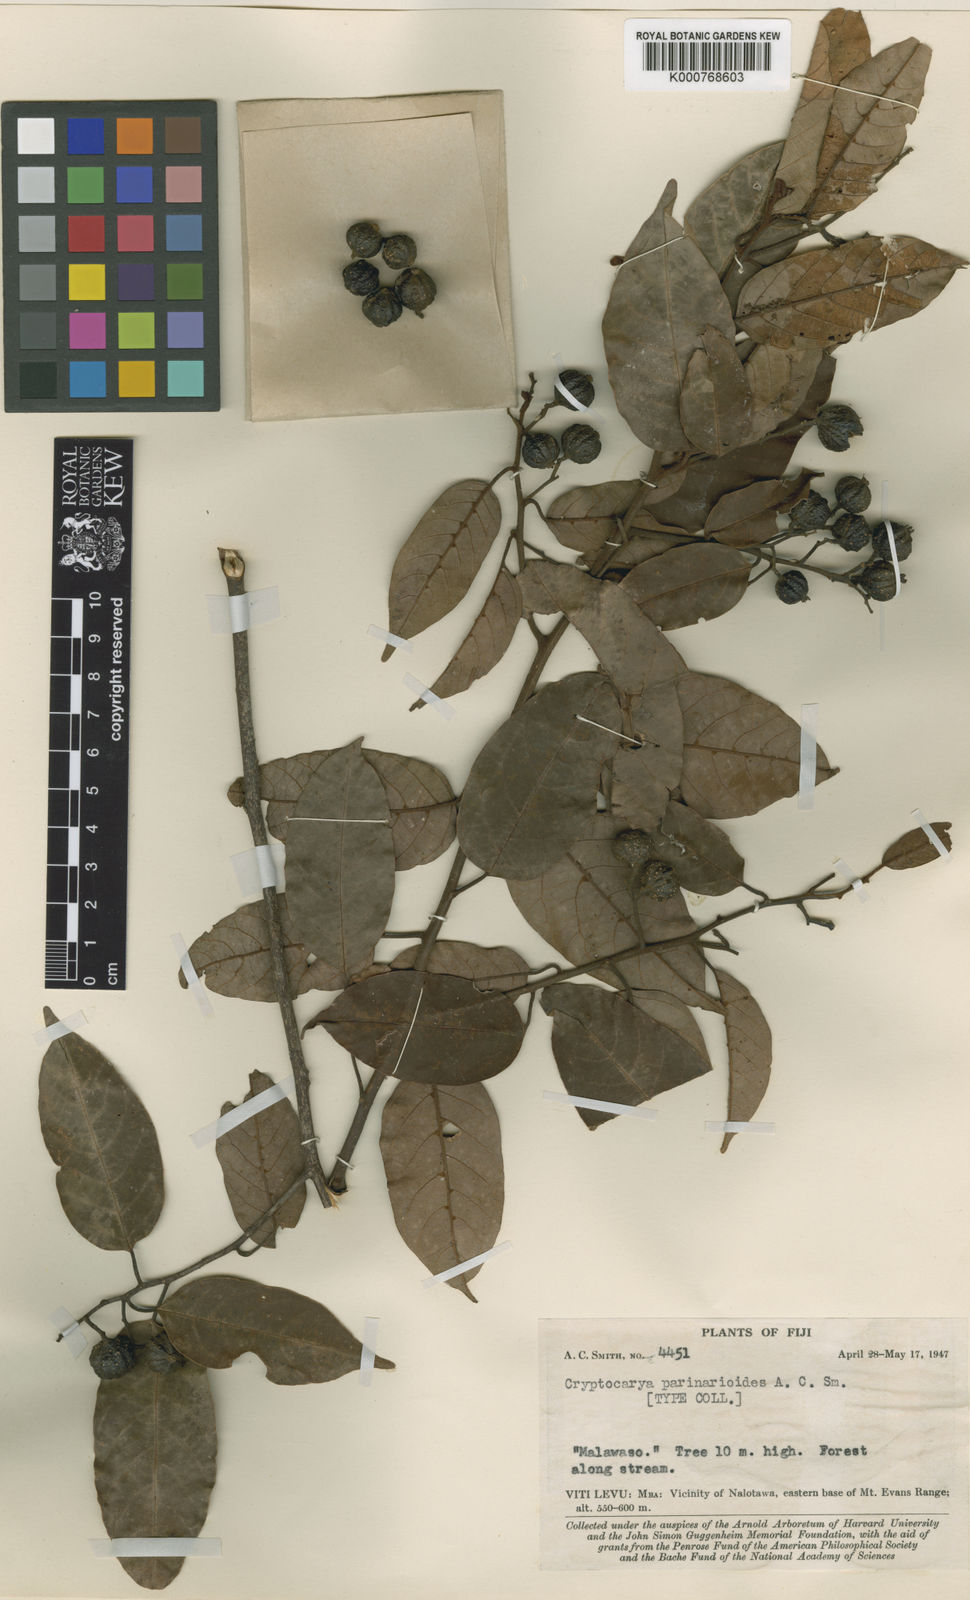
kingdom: Plantae
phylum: Tracheophyta
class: Magnoliopsida
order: Laurales
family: Lauraceae
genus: Cryptocarya
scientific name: Cryptocarya parinarioides
